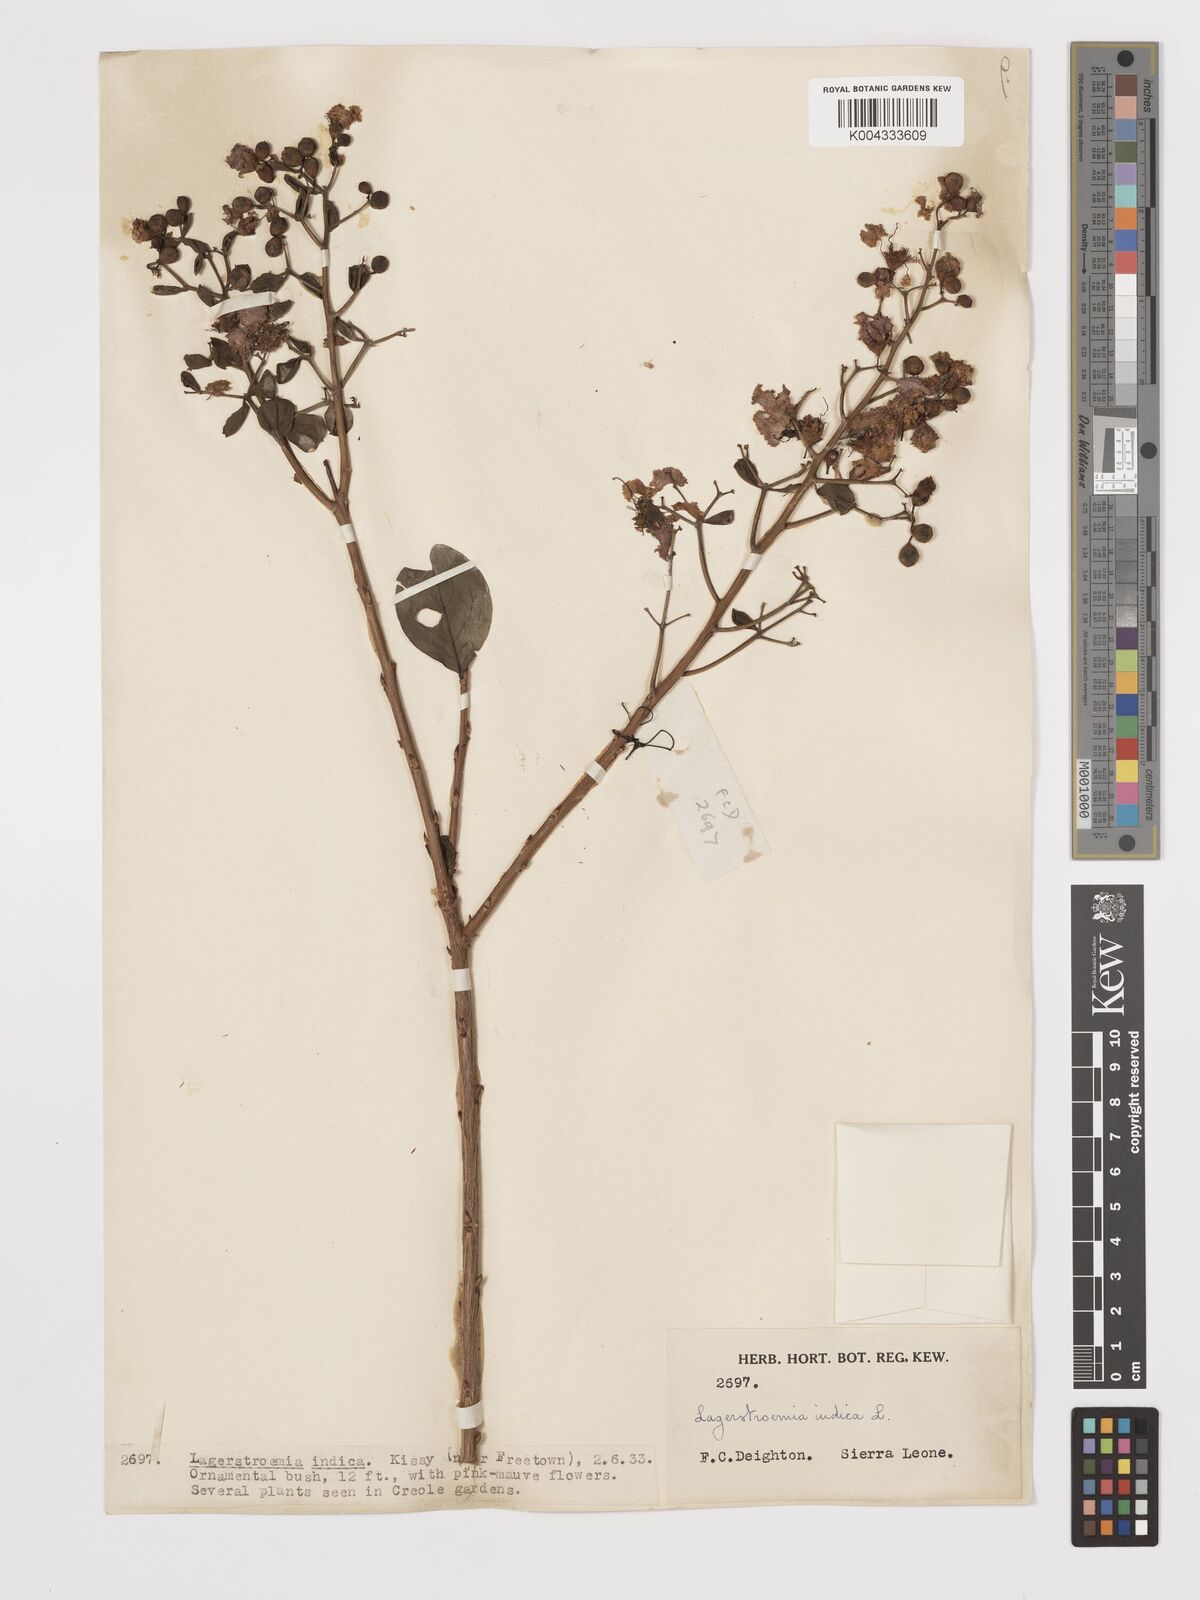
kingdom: Plantae
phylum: Tracheophyta
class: Magnoliopsida
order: Myrtales
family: Lythraceae
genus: Lagerstroemia
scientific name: Lagerstroemia indica
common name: Crape-myrtle
